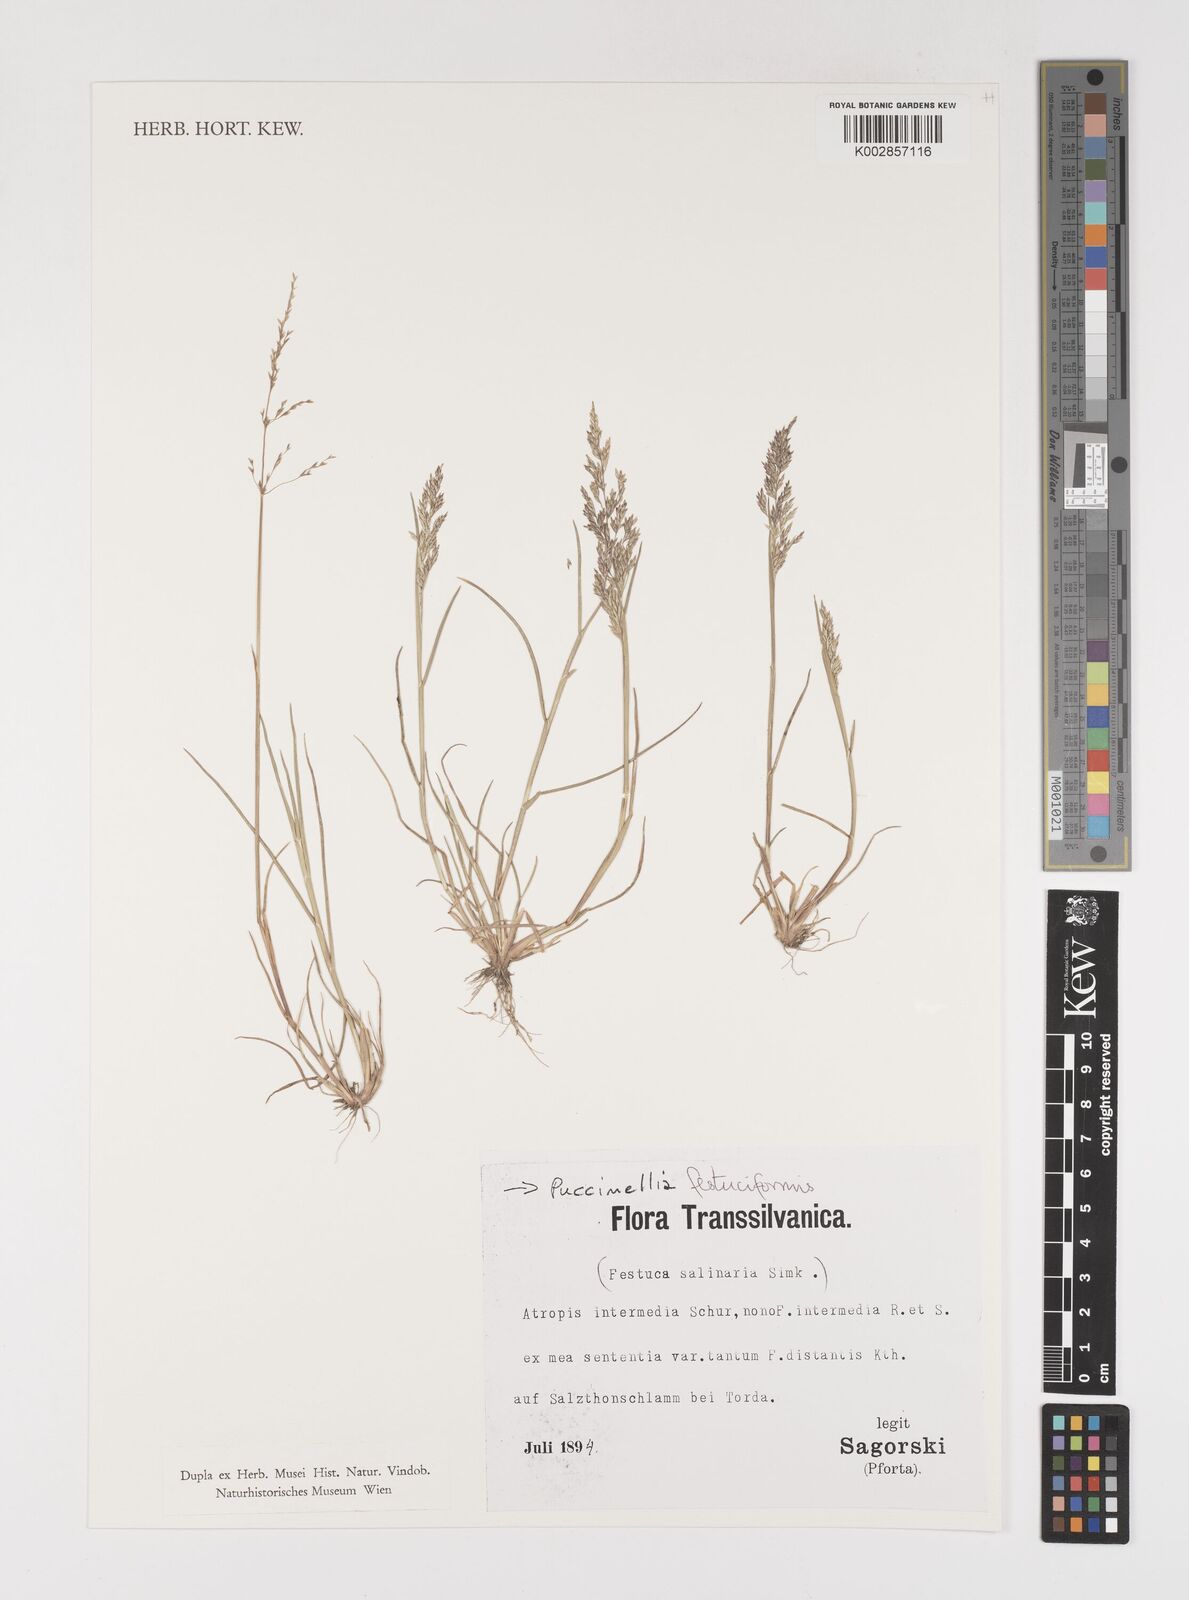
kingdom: Plantae
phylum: Tracheophyta
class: Liliopsida
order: Poales
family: Poaceae
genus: Puccinellia
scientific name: Puccinellia festuciformis
